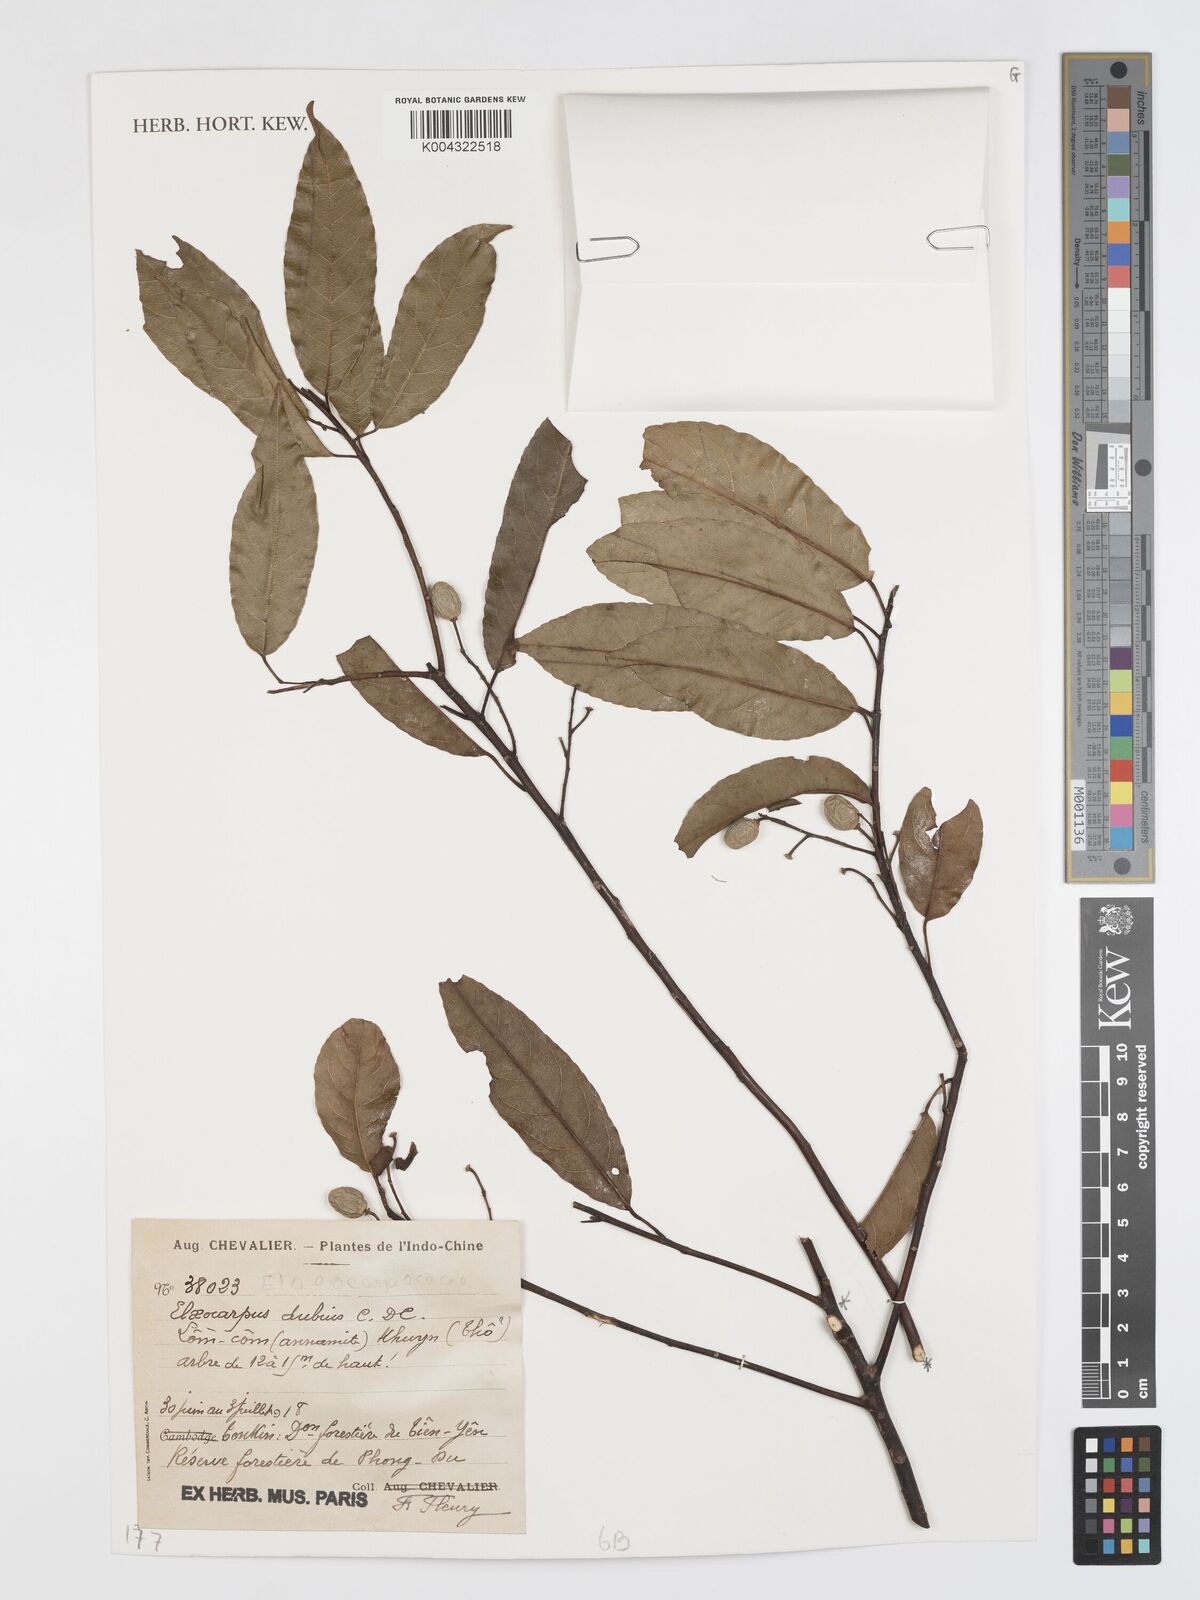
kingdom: Plantae
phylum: Tracheophyta
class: Magnoliopsida
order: Oxalidales
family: Elaeocarpaceae
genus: Elaeocarpus
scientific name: Elaeocarpus dubius
